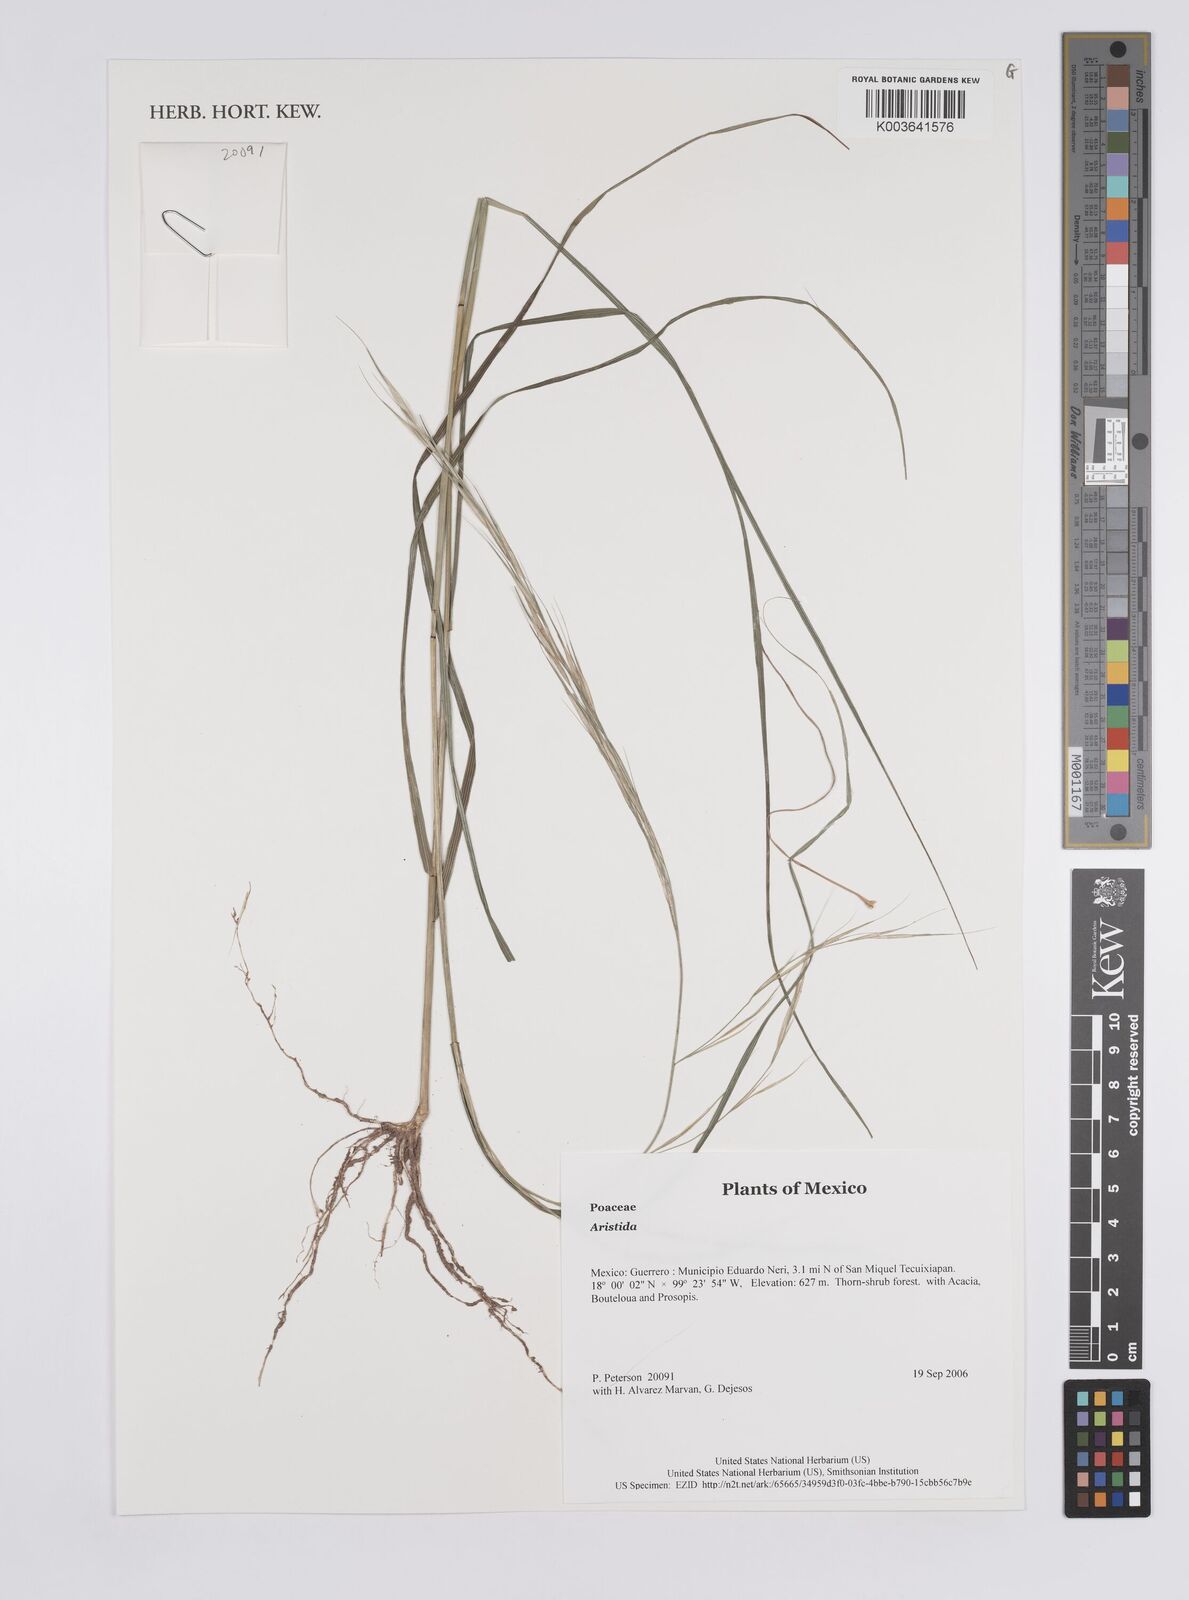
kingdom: Plantae
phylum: Tracheophyta
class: Liliopsida
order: Poales
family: Poaceae
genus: Aristida
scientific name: Aristida
